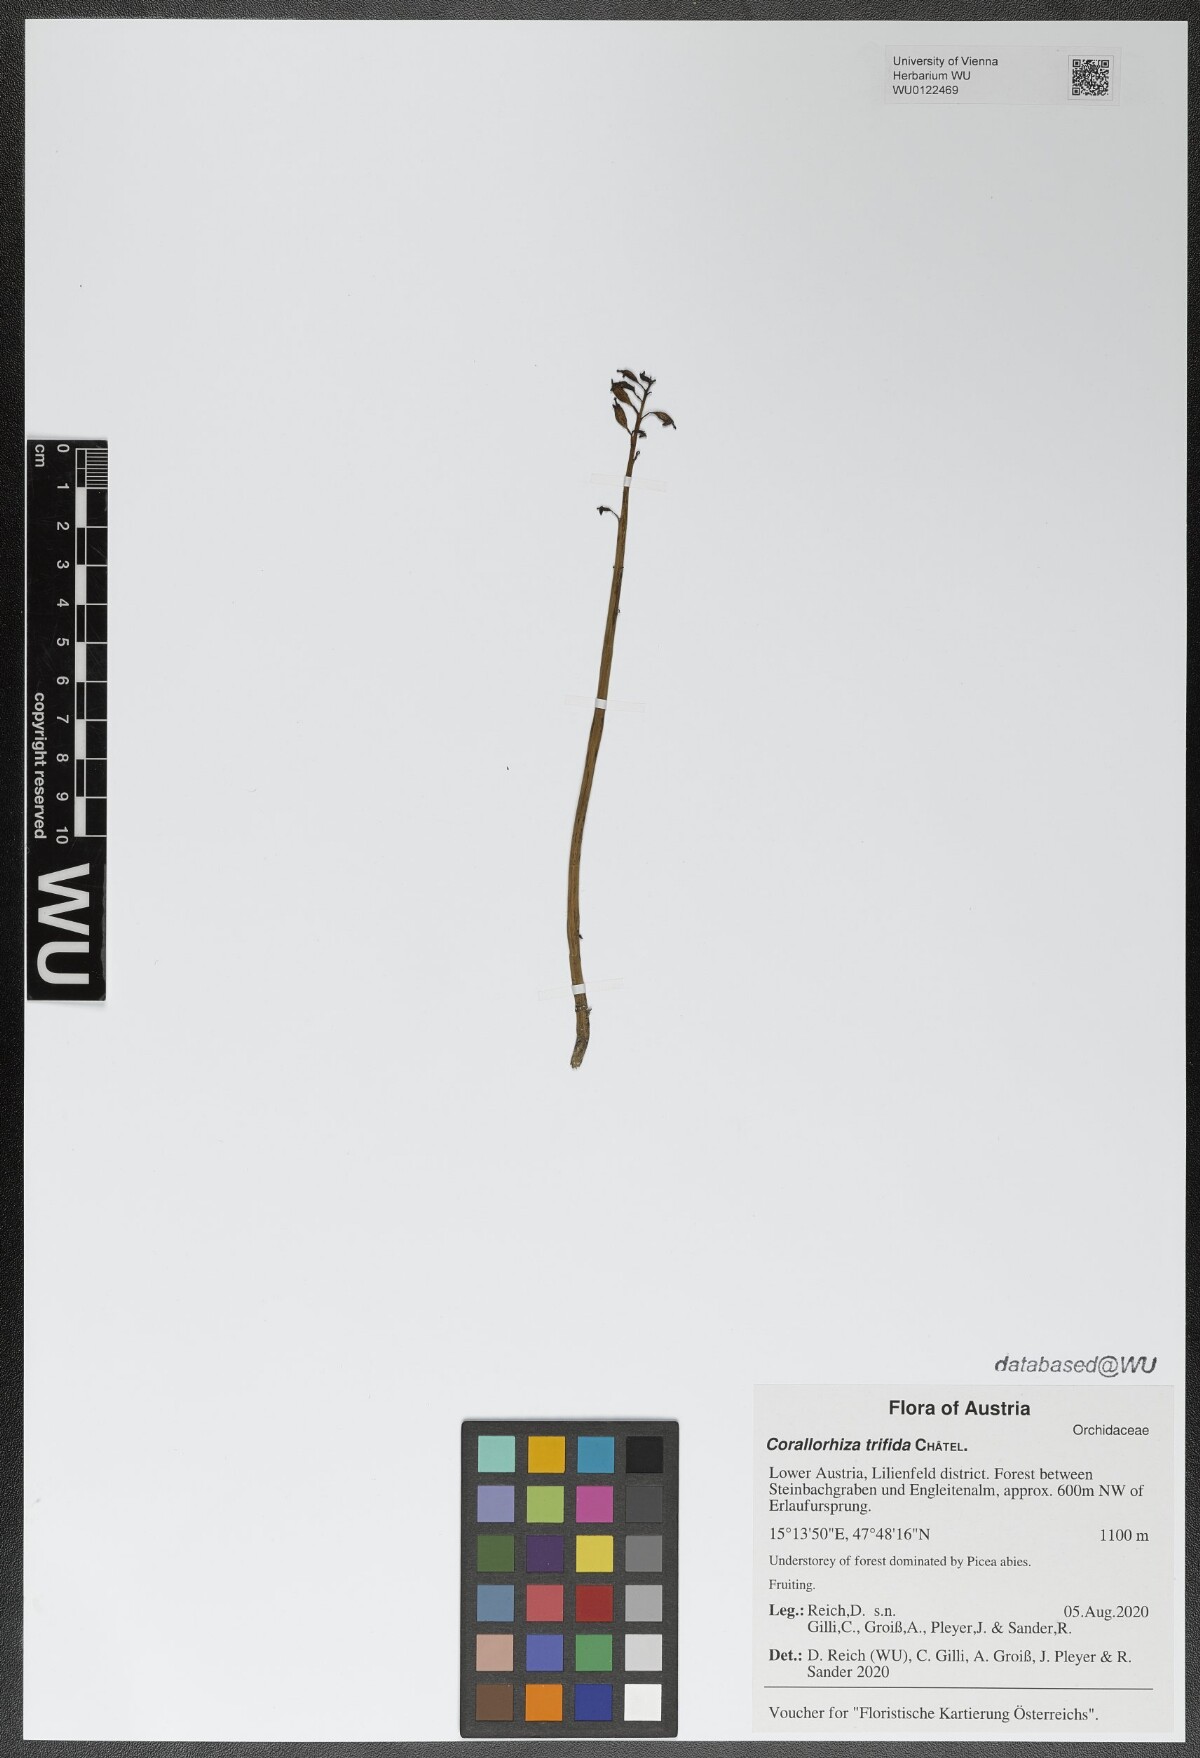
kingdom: Plantae
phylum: Tracheophyta
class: Liliopsida
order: Asparagales
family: Orchidaceae
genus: Corallorhiza
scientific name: Corallorhiza trifida
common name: Yellow coralroot
